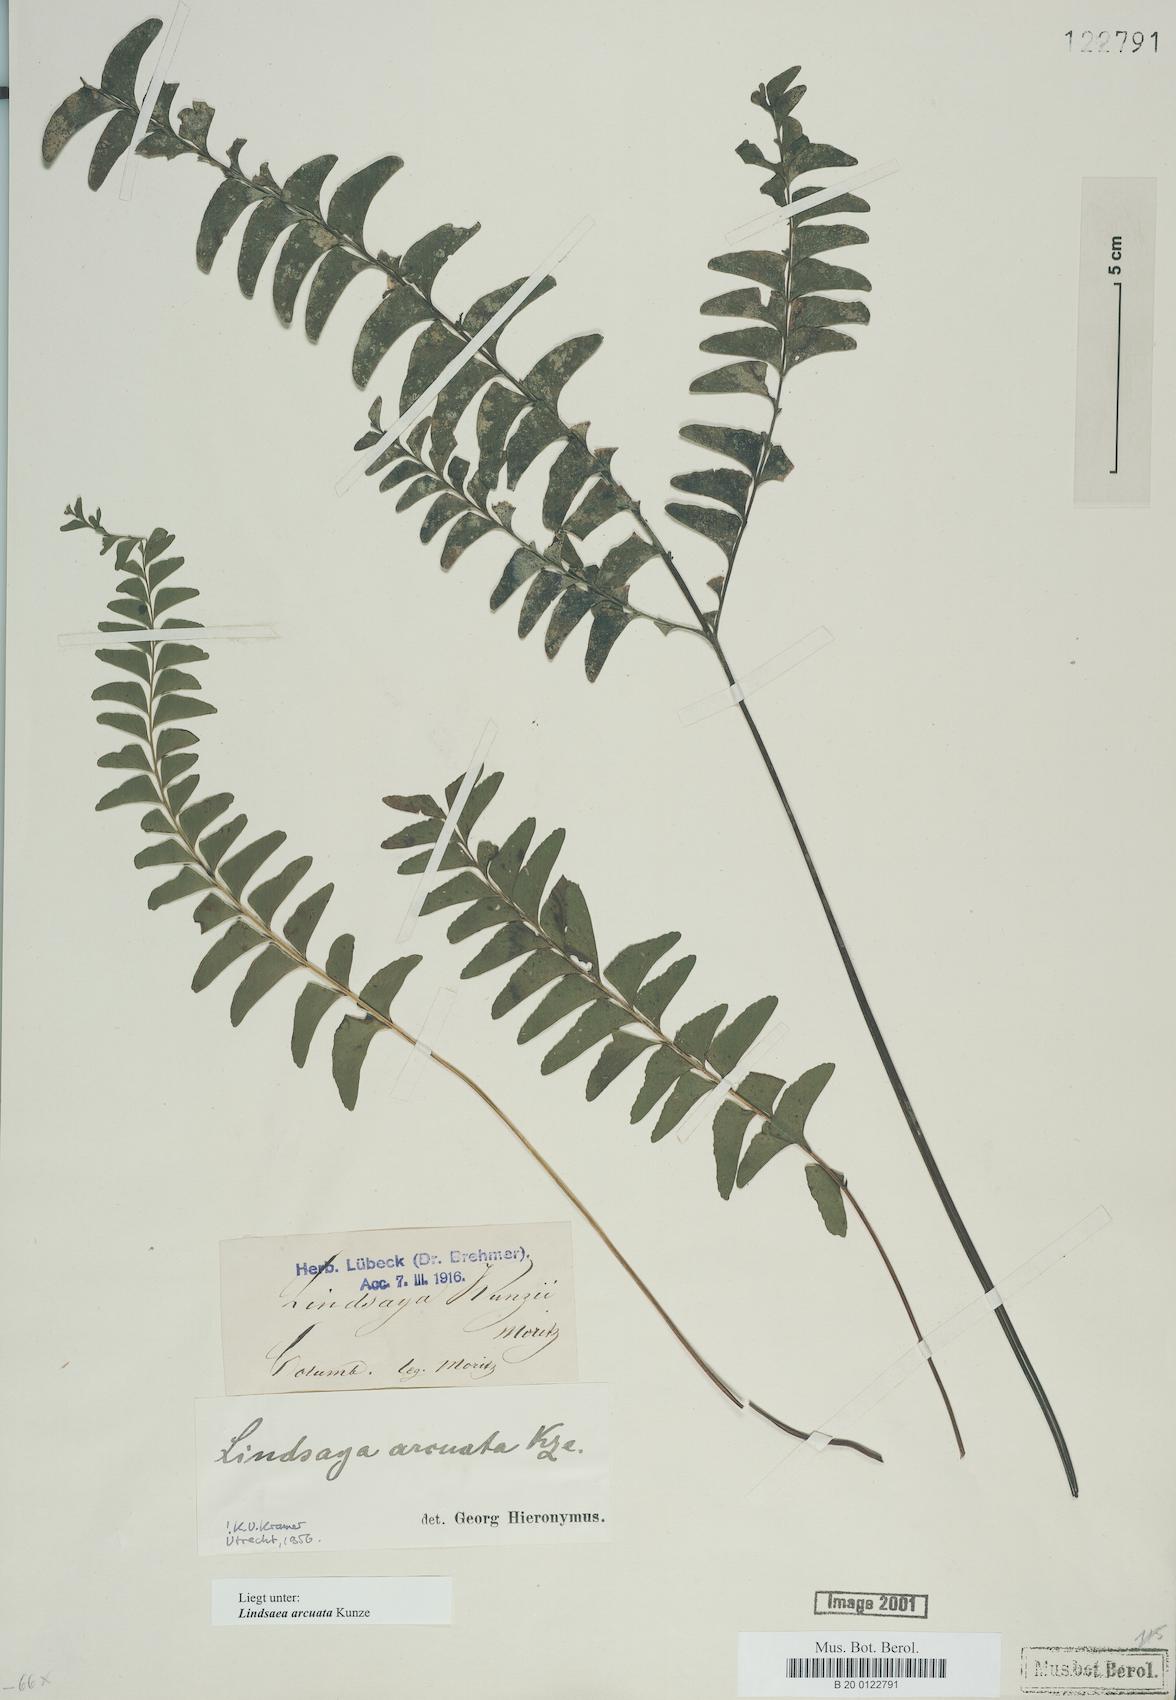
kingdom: Plantae
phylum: Tracheophyta
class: Polypodiopsida
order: Polypodiales
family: Lindsaeaceae
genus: Lindsaea
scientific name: Lindsaea arcuata
